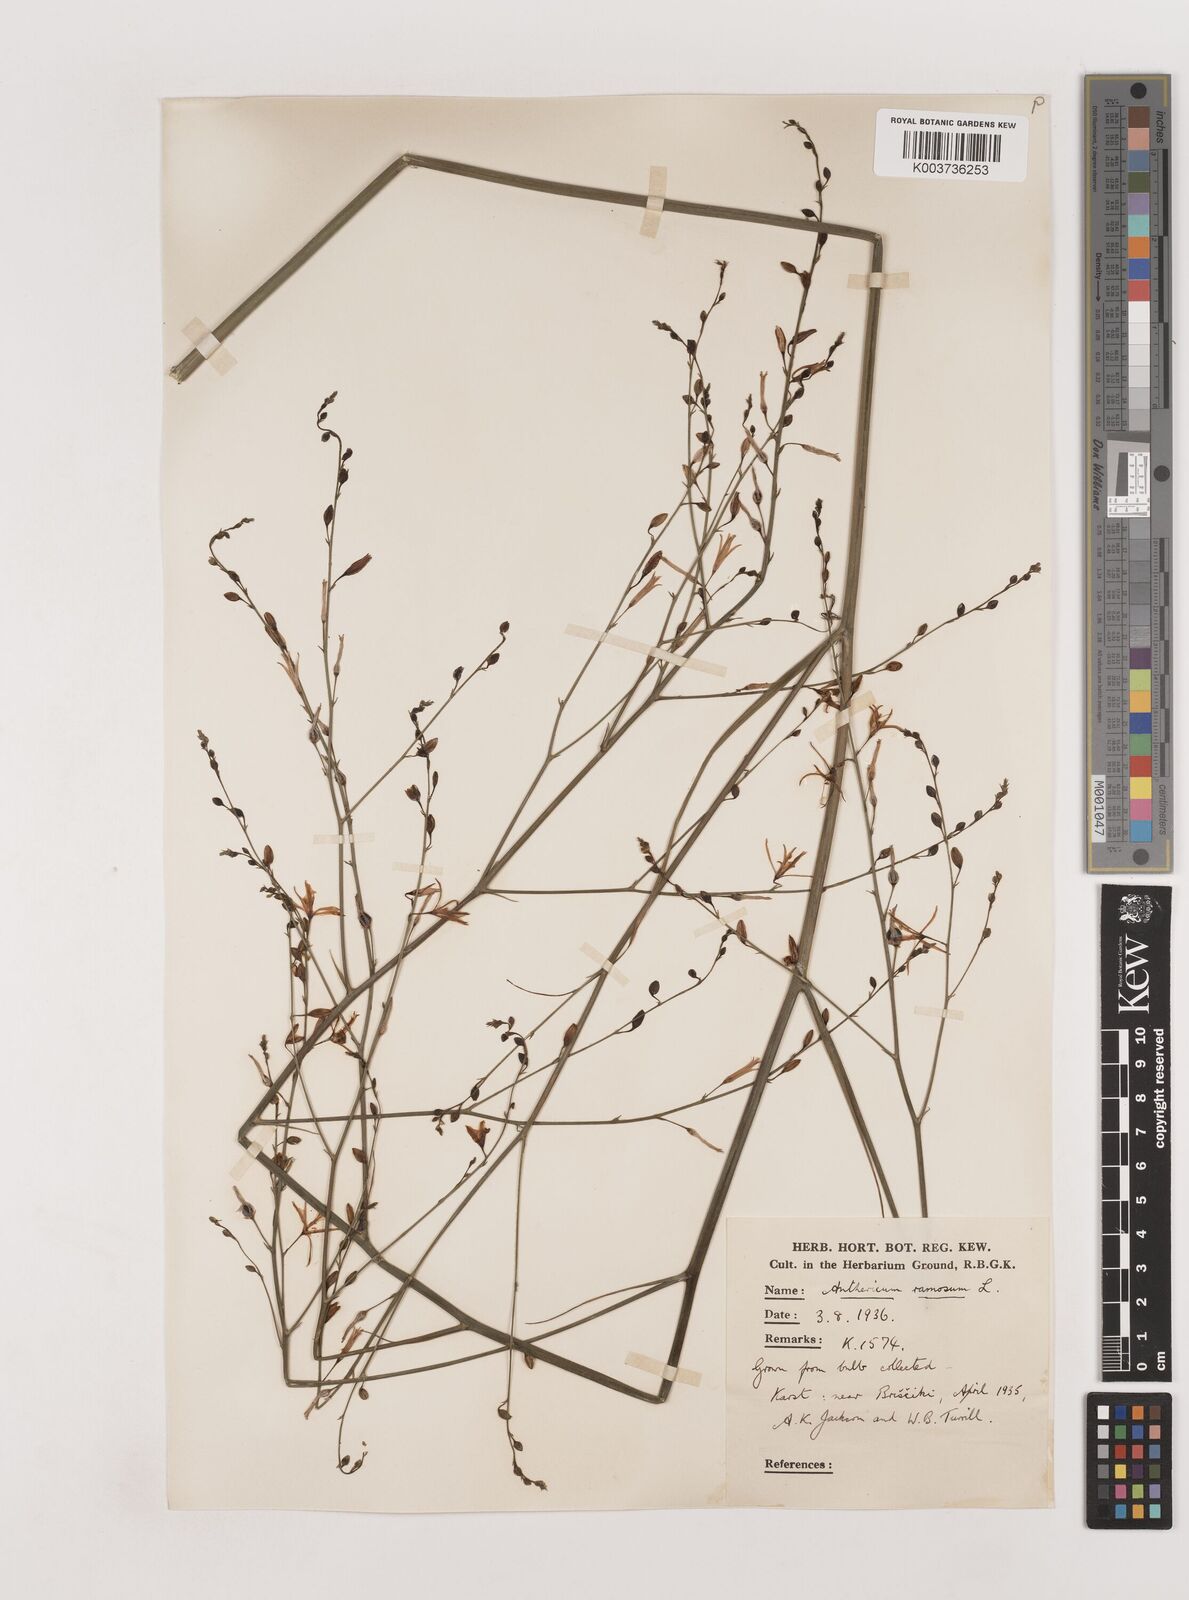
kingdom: Plantae
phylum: Tracheophyta
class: Liliopsida
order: Asparagales
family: Asparagaceae
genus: Anthericum
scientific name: Anthericum ramosum
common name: Branched st. bernard's-lily
